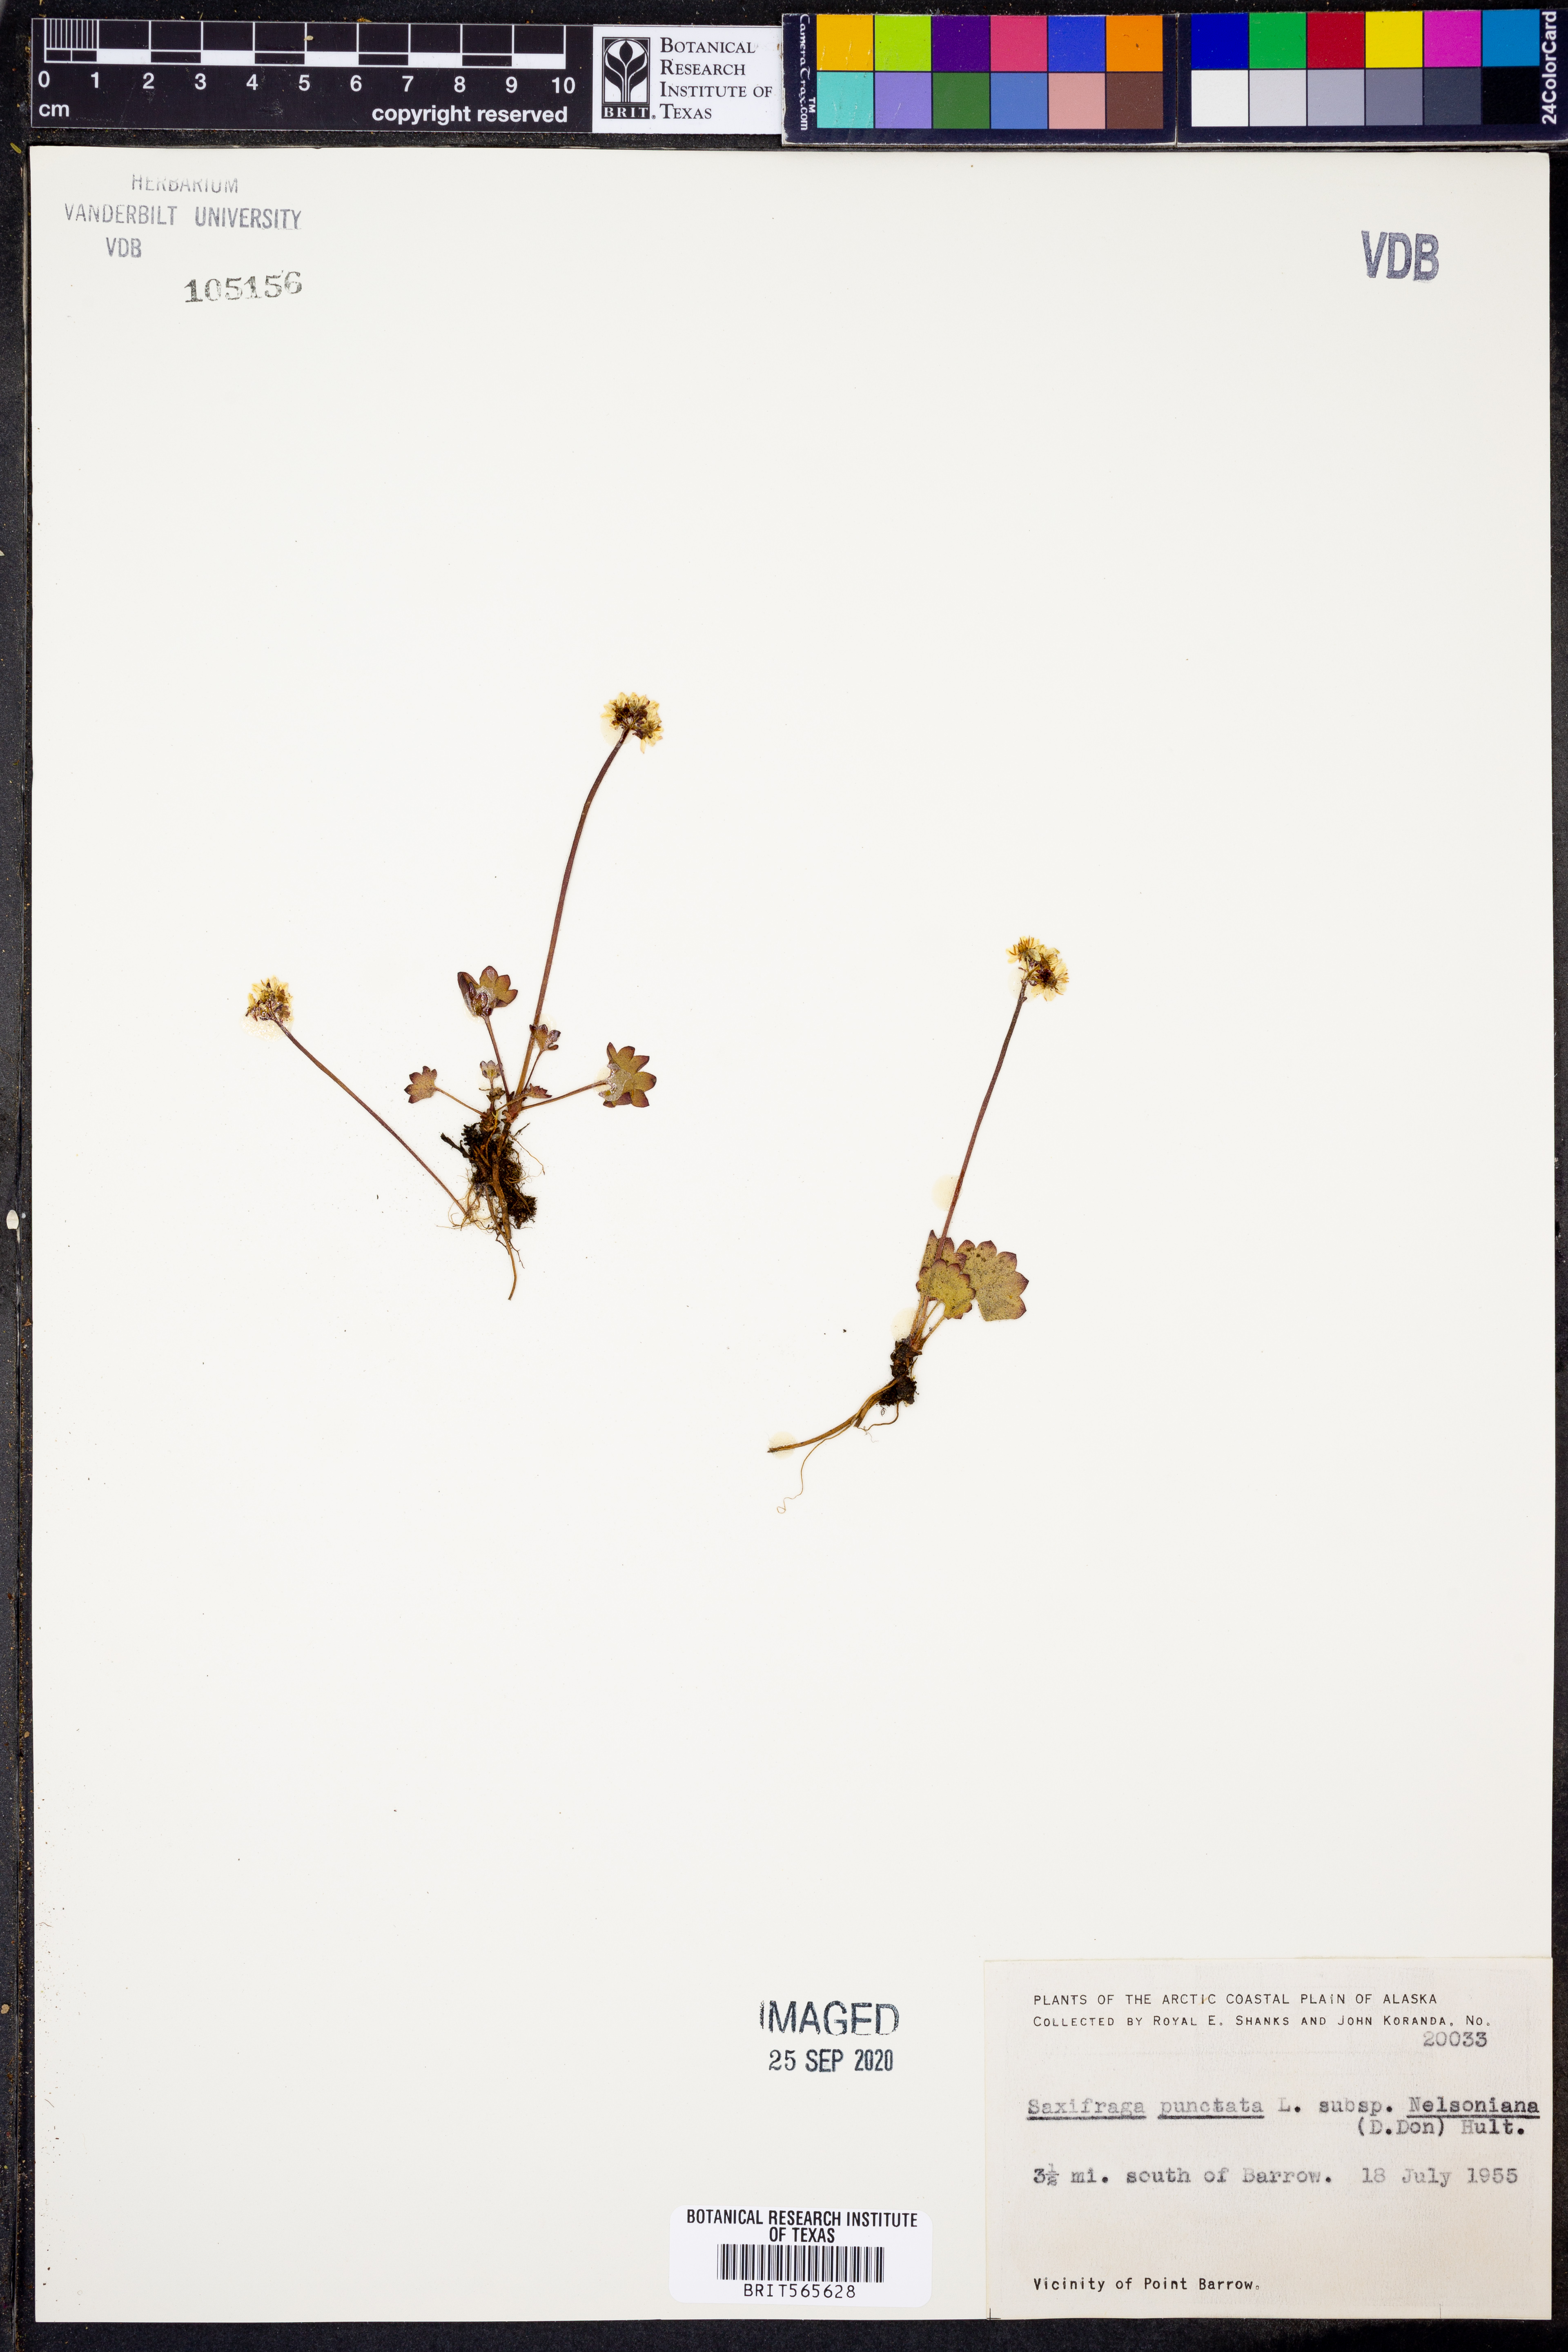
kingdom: Plantae
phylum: Tracheophyta
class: Magnoliopsida
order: Saxifragales
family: Saxifragaceae
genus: Micranthes
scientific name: Micranthes nelsoniana
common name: Nelson's saxifrage
